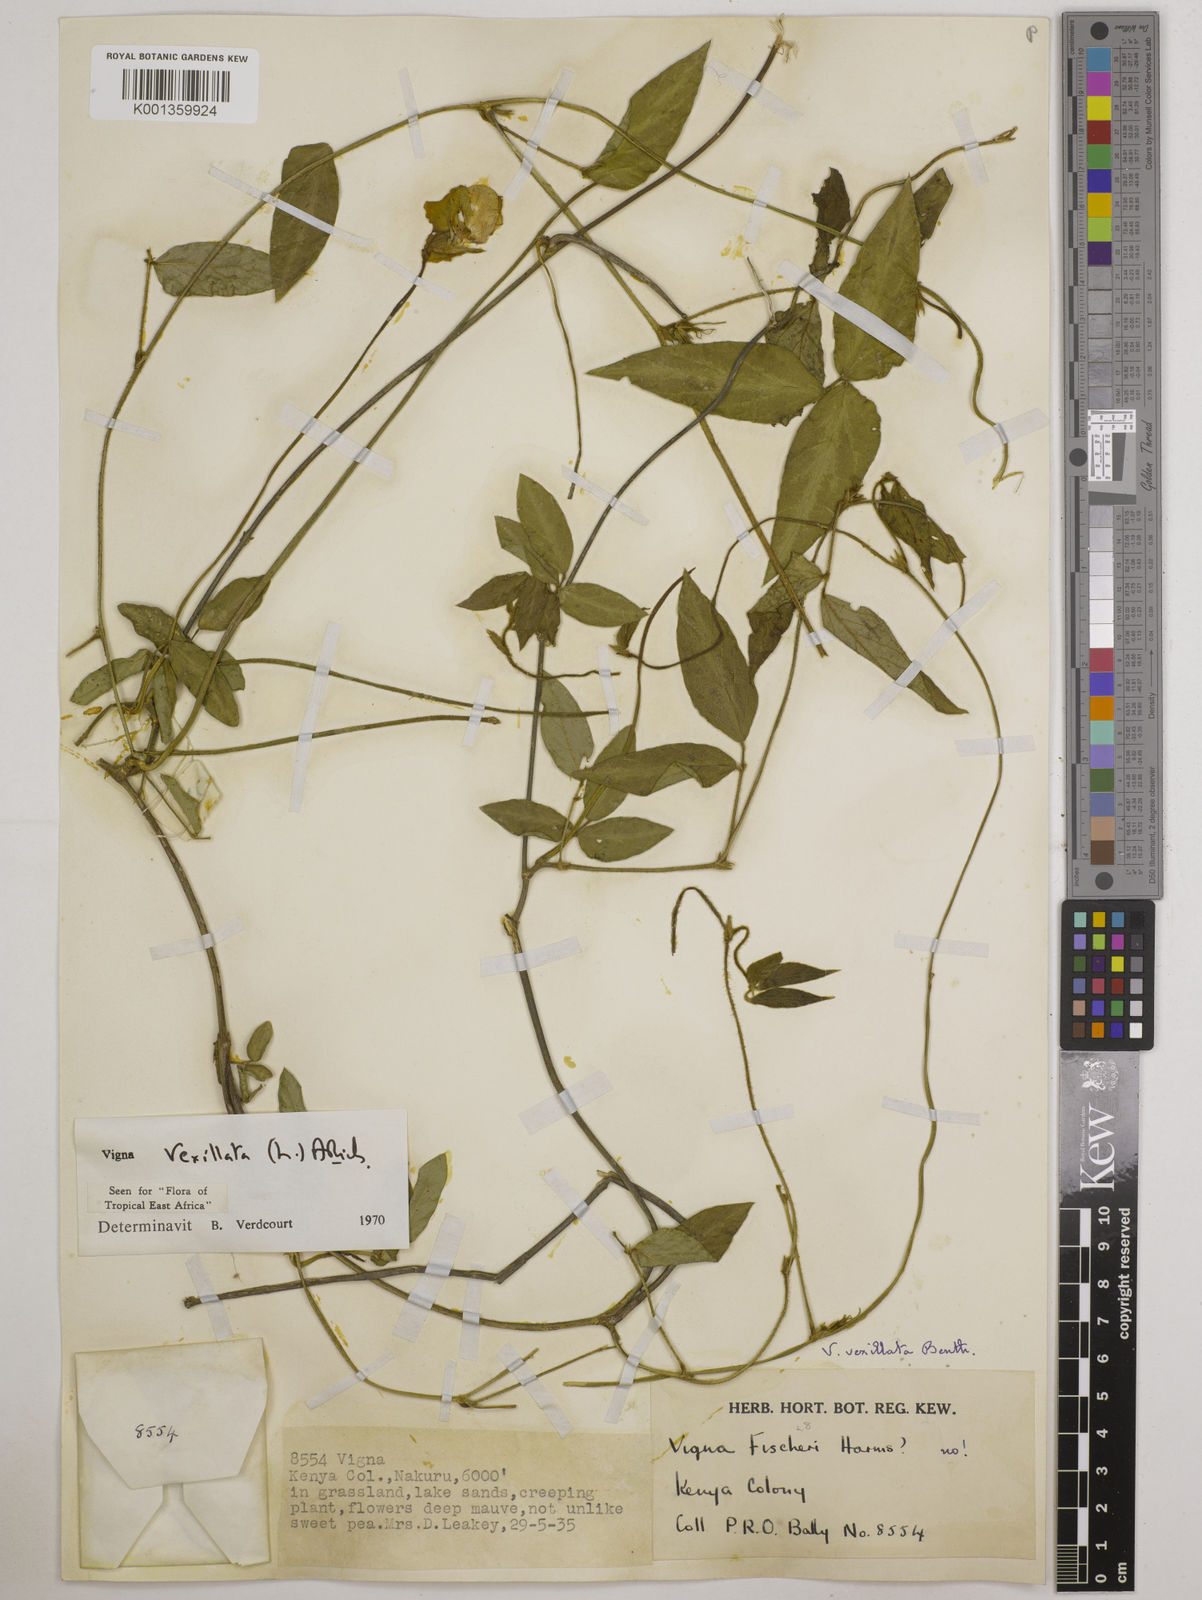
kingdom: Plantae
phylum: Tracheophyta
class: Magnoliopsida
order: Fabales
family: Fabaceae
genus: Vigna
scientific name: Vigna vexillata
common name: Zombi pea
